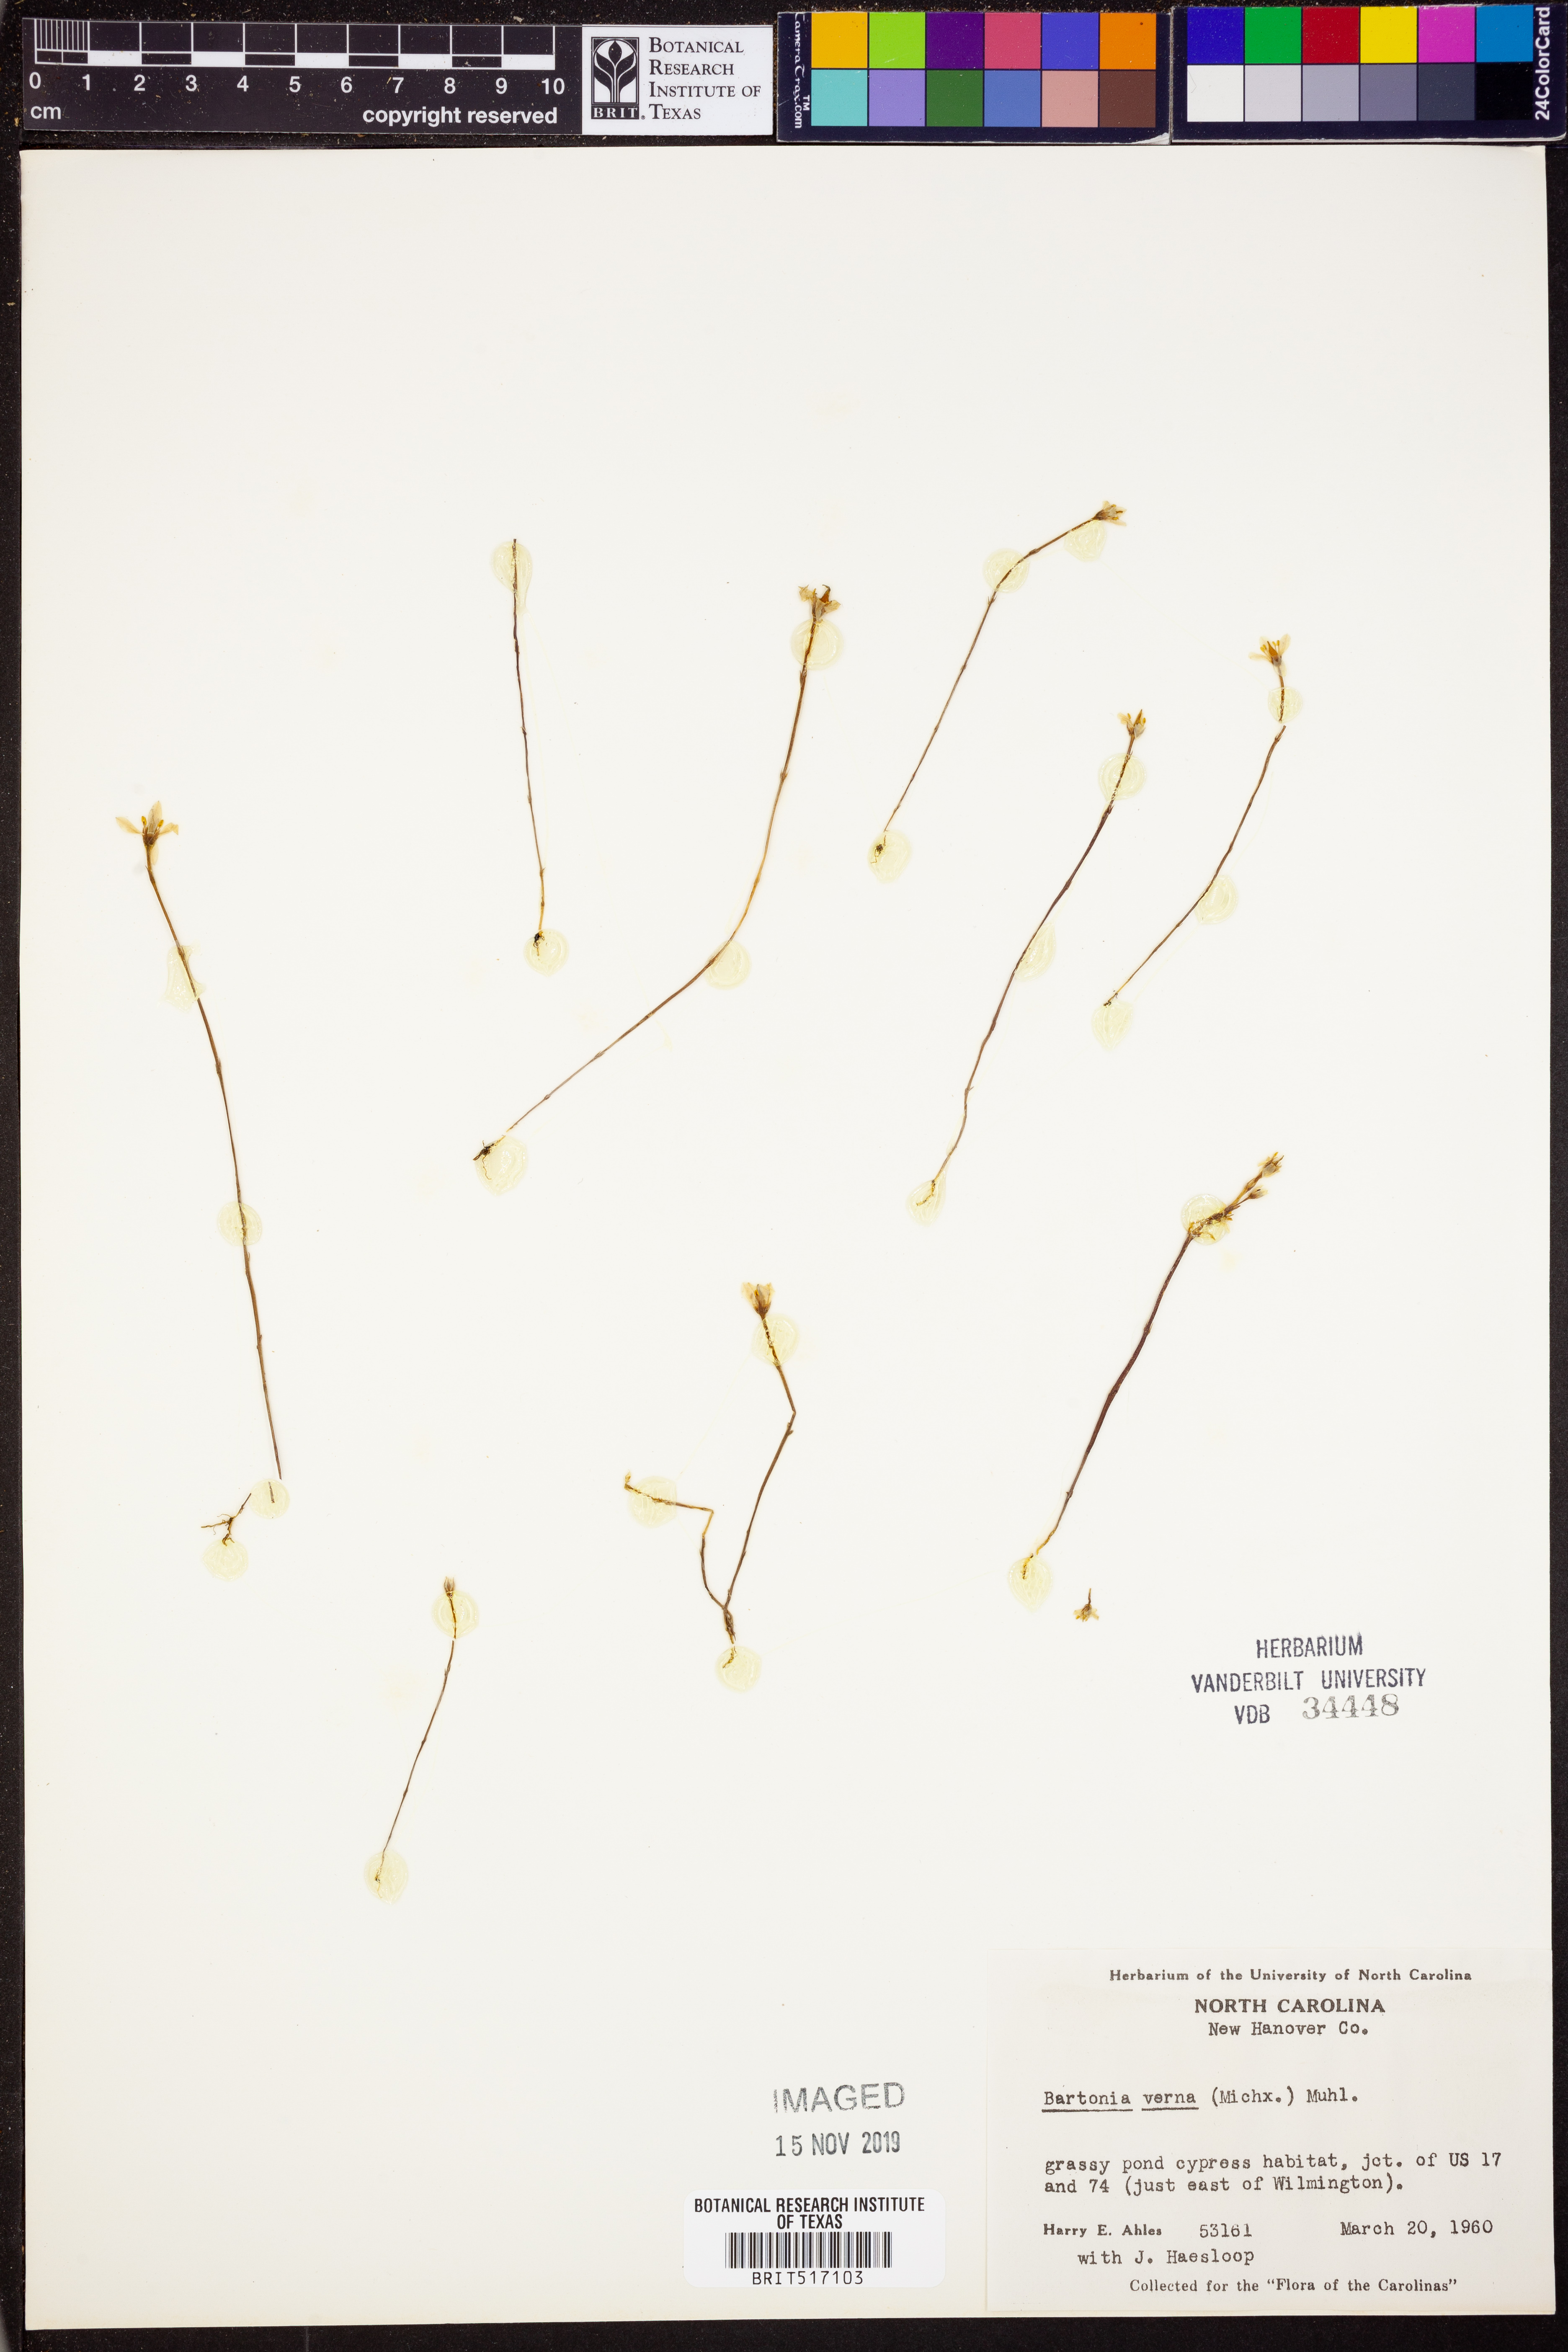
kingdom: Plantae
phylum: Tracheophyta
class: Magnoliopsida
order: Gentianales
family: Gentianaceae
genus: Bartonia
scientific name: Bartonia verna
